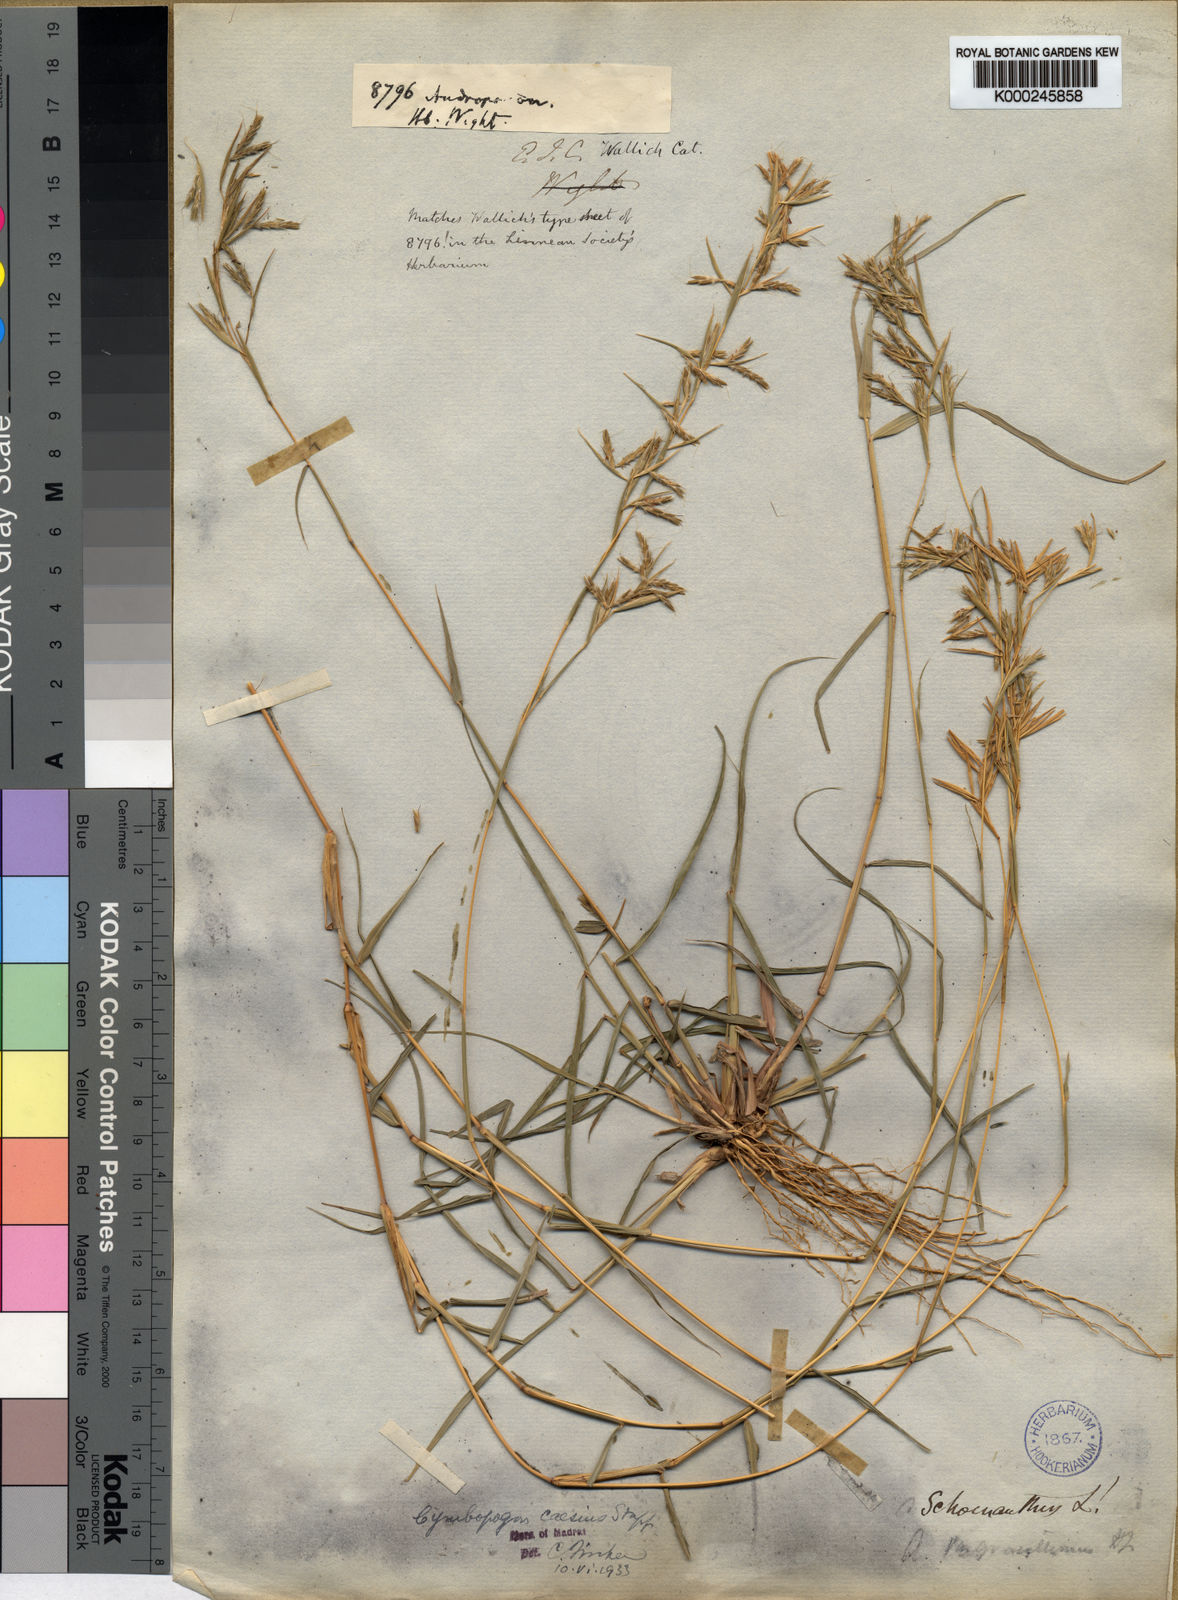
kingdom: Plantae
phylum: Tracheophyta
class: Liliopsida
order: Poales
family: Poaceae
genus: Cymbopogon
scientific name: Cymbopogon caesius
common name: Kachi grass
